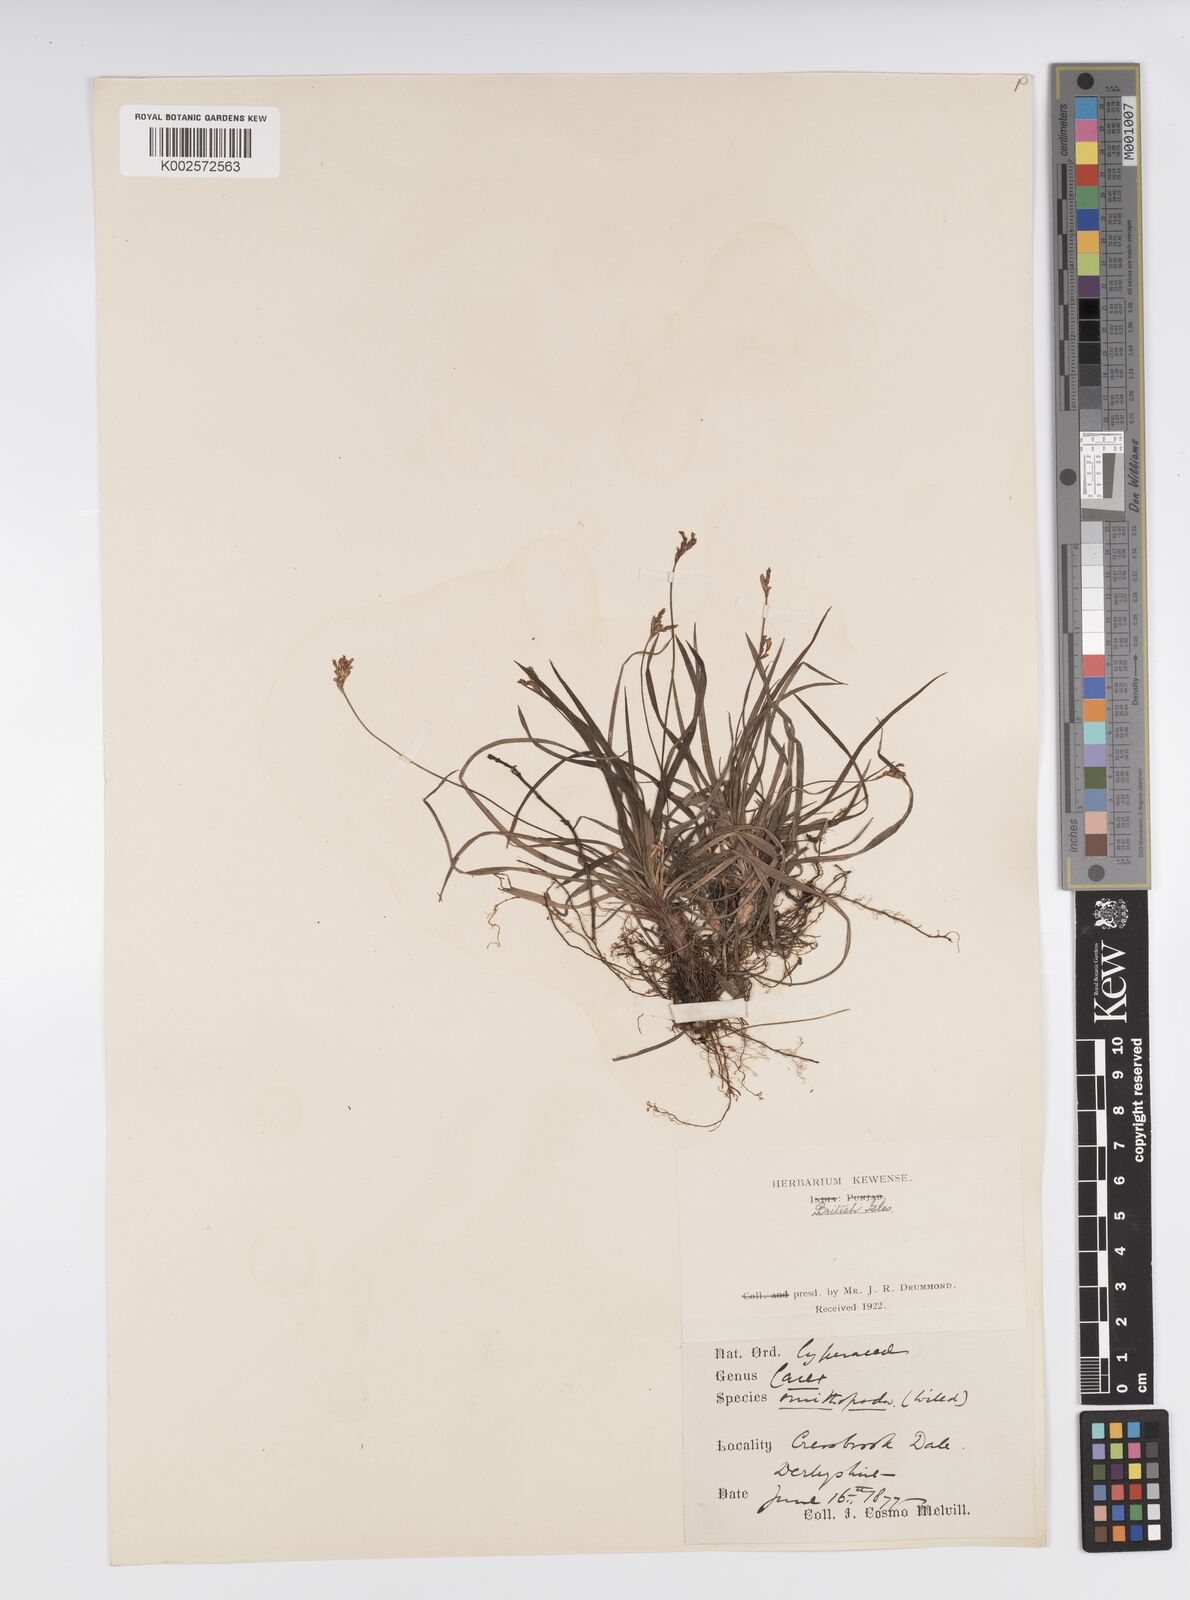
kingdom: Plantae
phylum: Tracheophyta
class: Liliopsida
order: Poales
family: Cyperaceae
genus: Carex
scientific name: Carex ornithopoda
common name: Bird's-foot sedge
